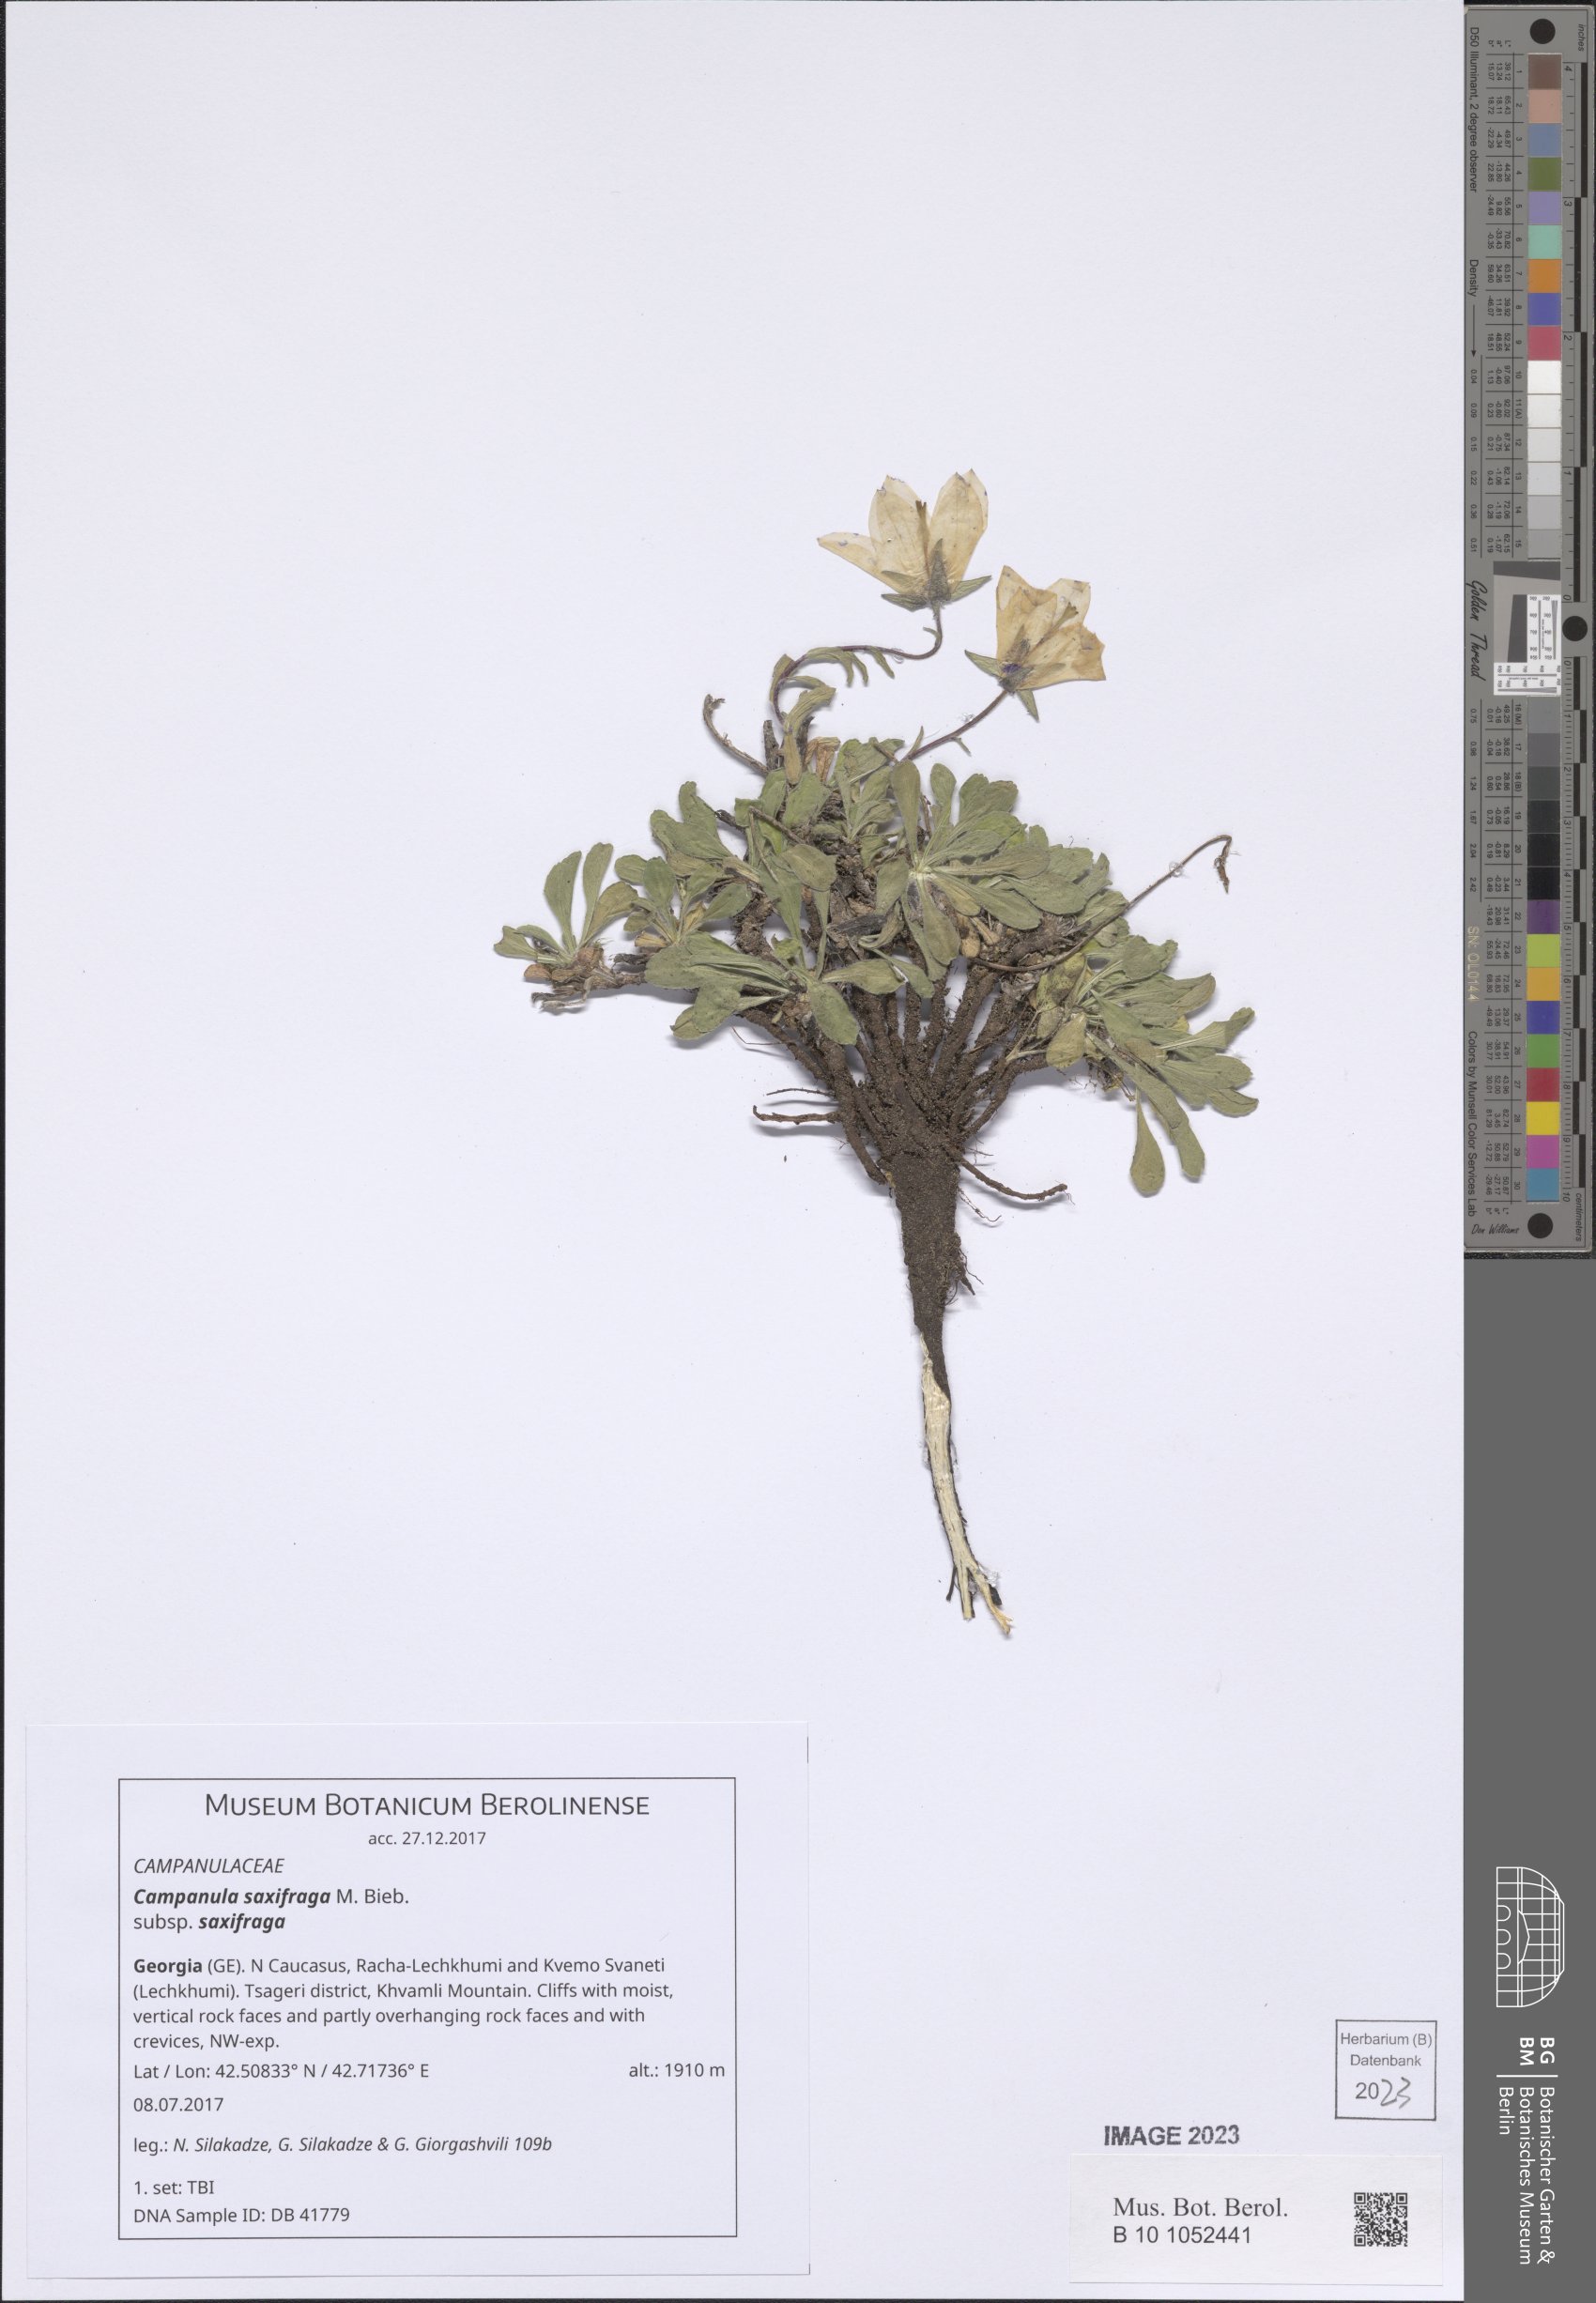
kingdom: Plantae
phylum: Tracheophyta
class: Magnoliopsida
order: Asterales
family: Campanulaceae
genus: Campanula
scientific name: Campanula saxifraga
